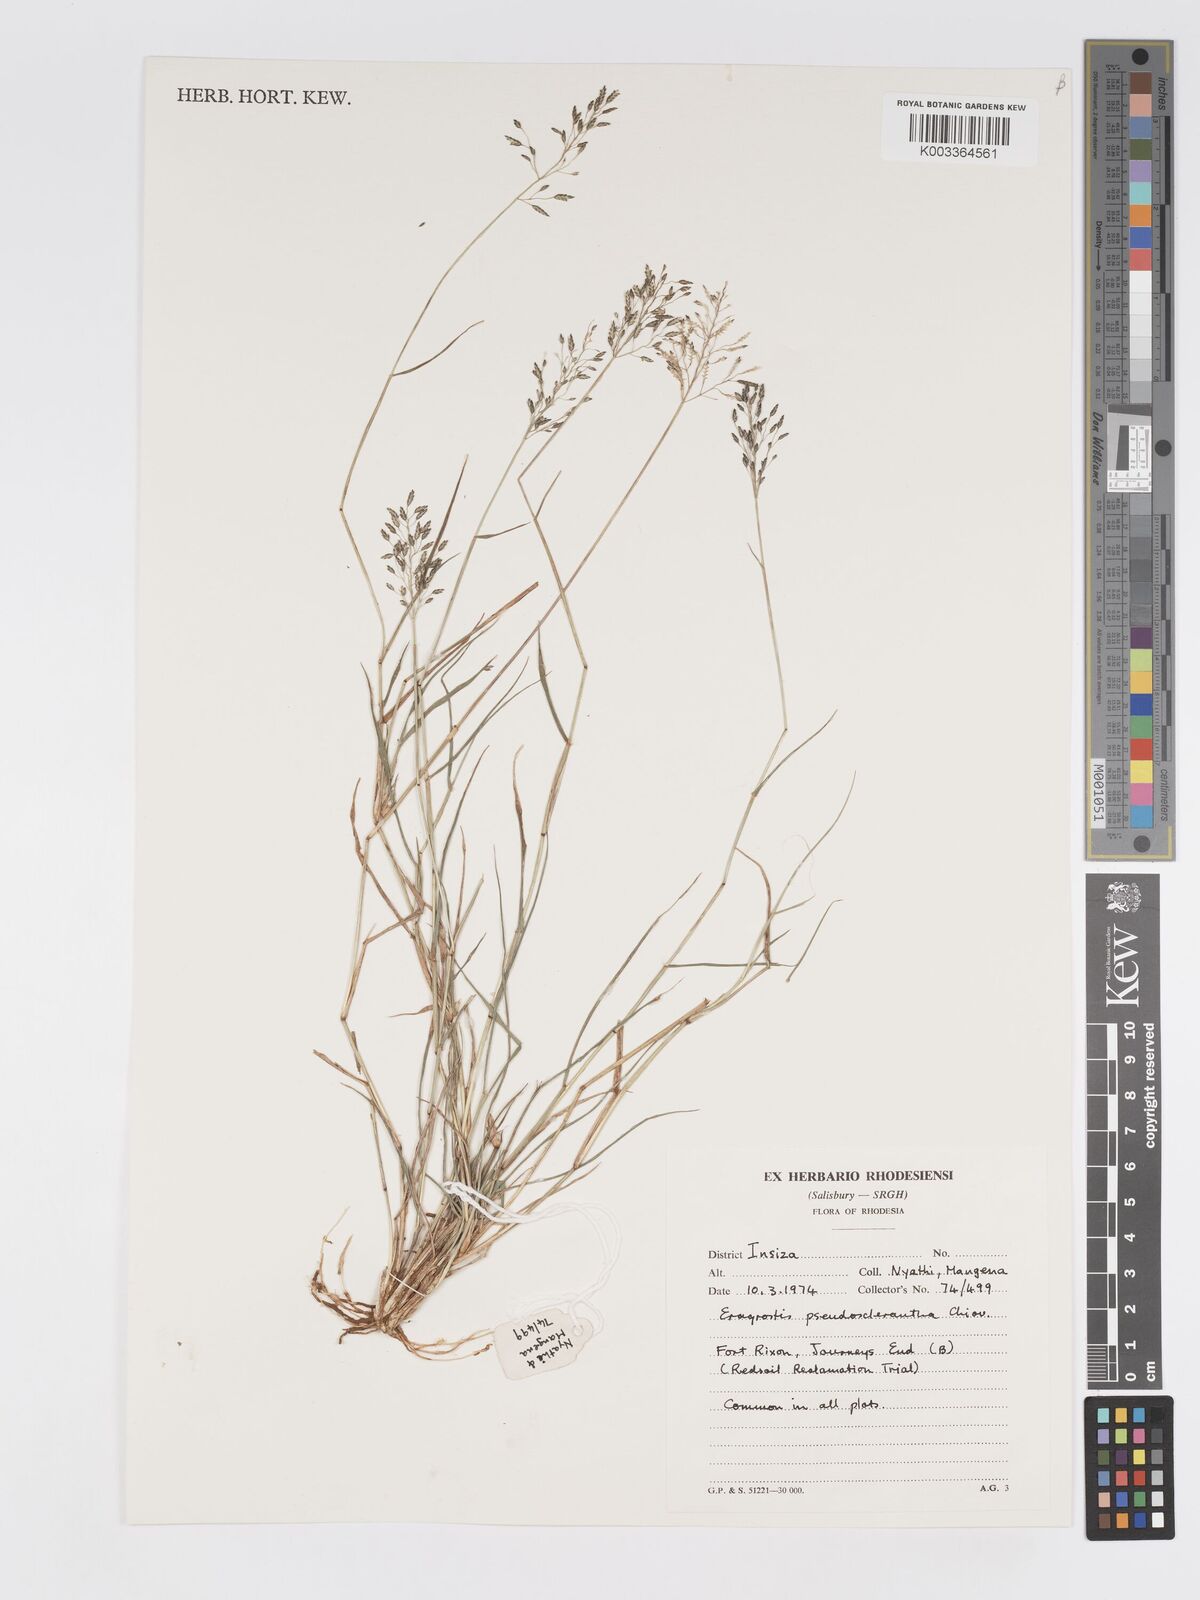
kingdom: Plantae
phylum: Tracheophyta
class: Liliopsida
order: Poales
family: Poaceae
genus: Eragrostis
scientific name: Eragrostis patentipilosa
